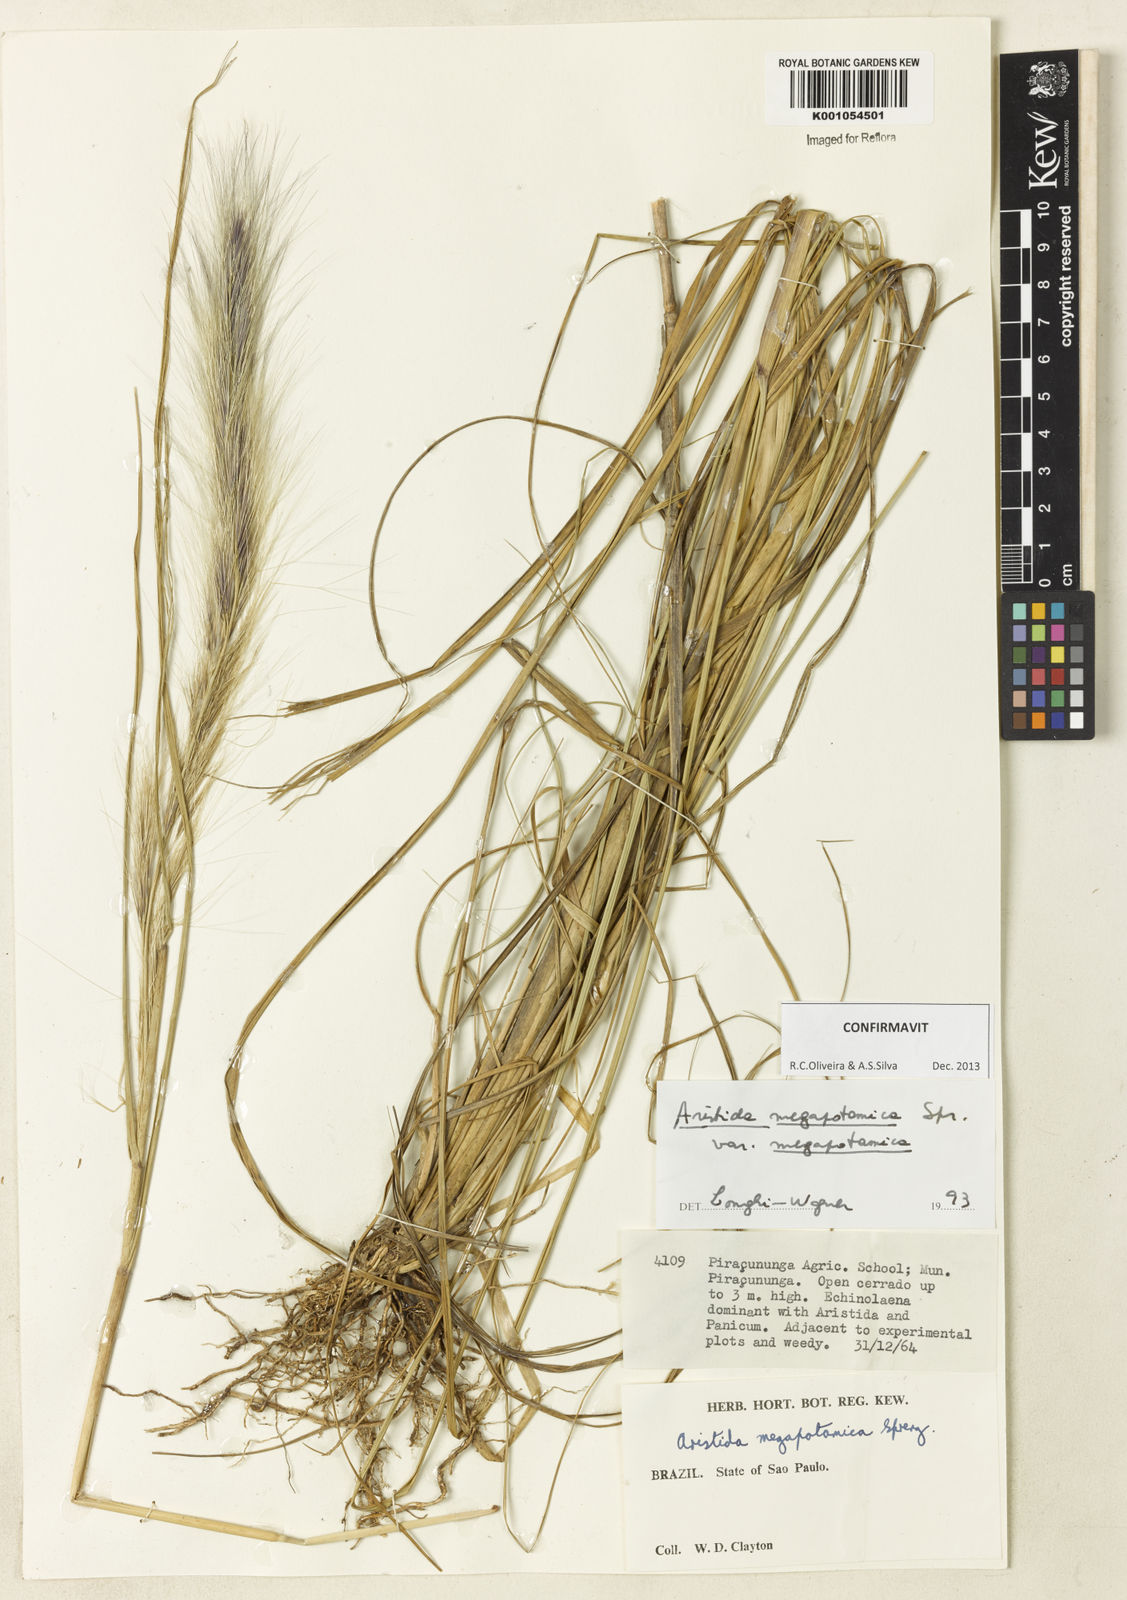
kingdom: Plantae
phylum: Tracheophyta
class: Liliopsida
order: Poales
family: Poaceae
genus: Aristida
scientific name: Aristida megapotamica
